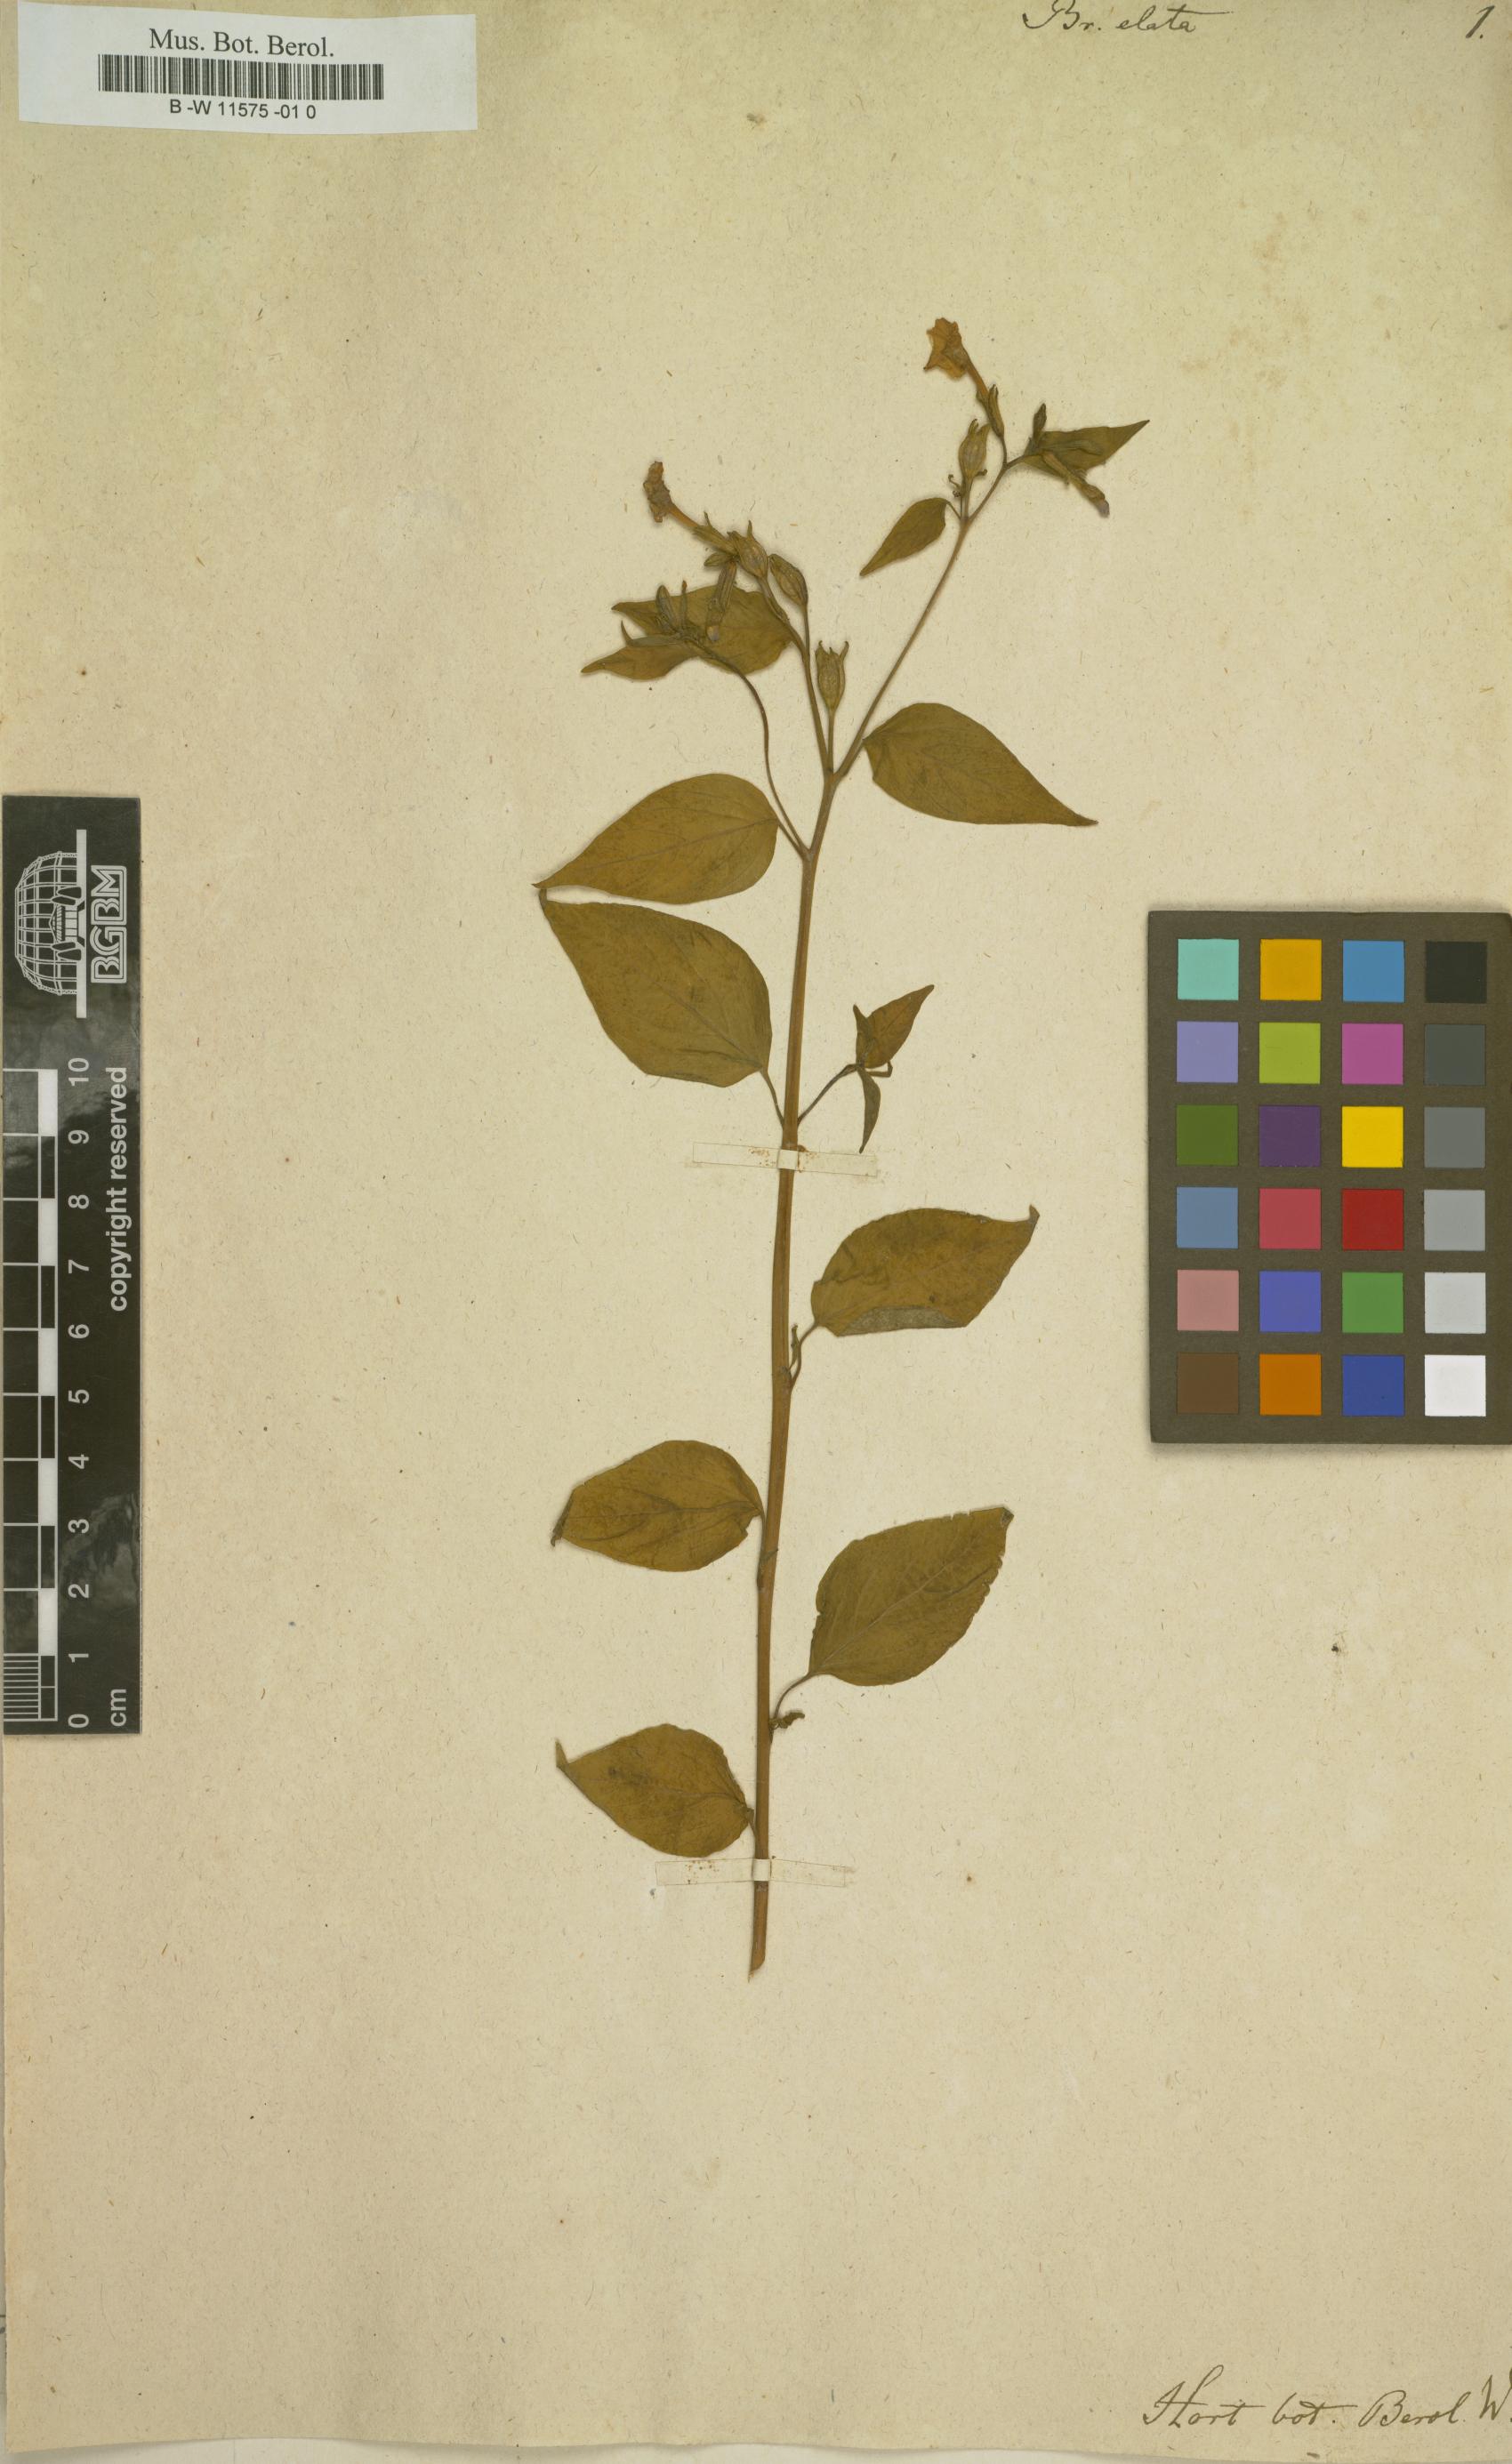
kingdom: Plantae
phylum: Tracheophyta
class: Magnoliopsida
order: Solanales
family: Solanaceae
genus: Browallia
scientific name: Browallia americana
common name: Jamaican forget-me-not
